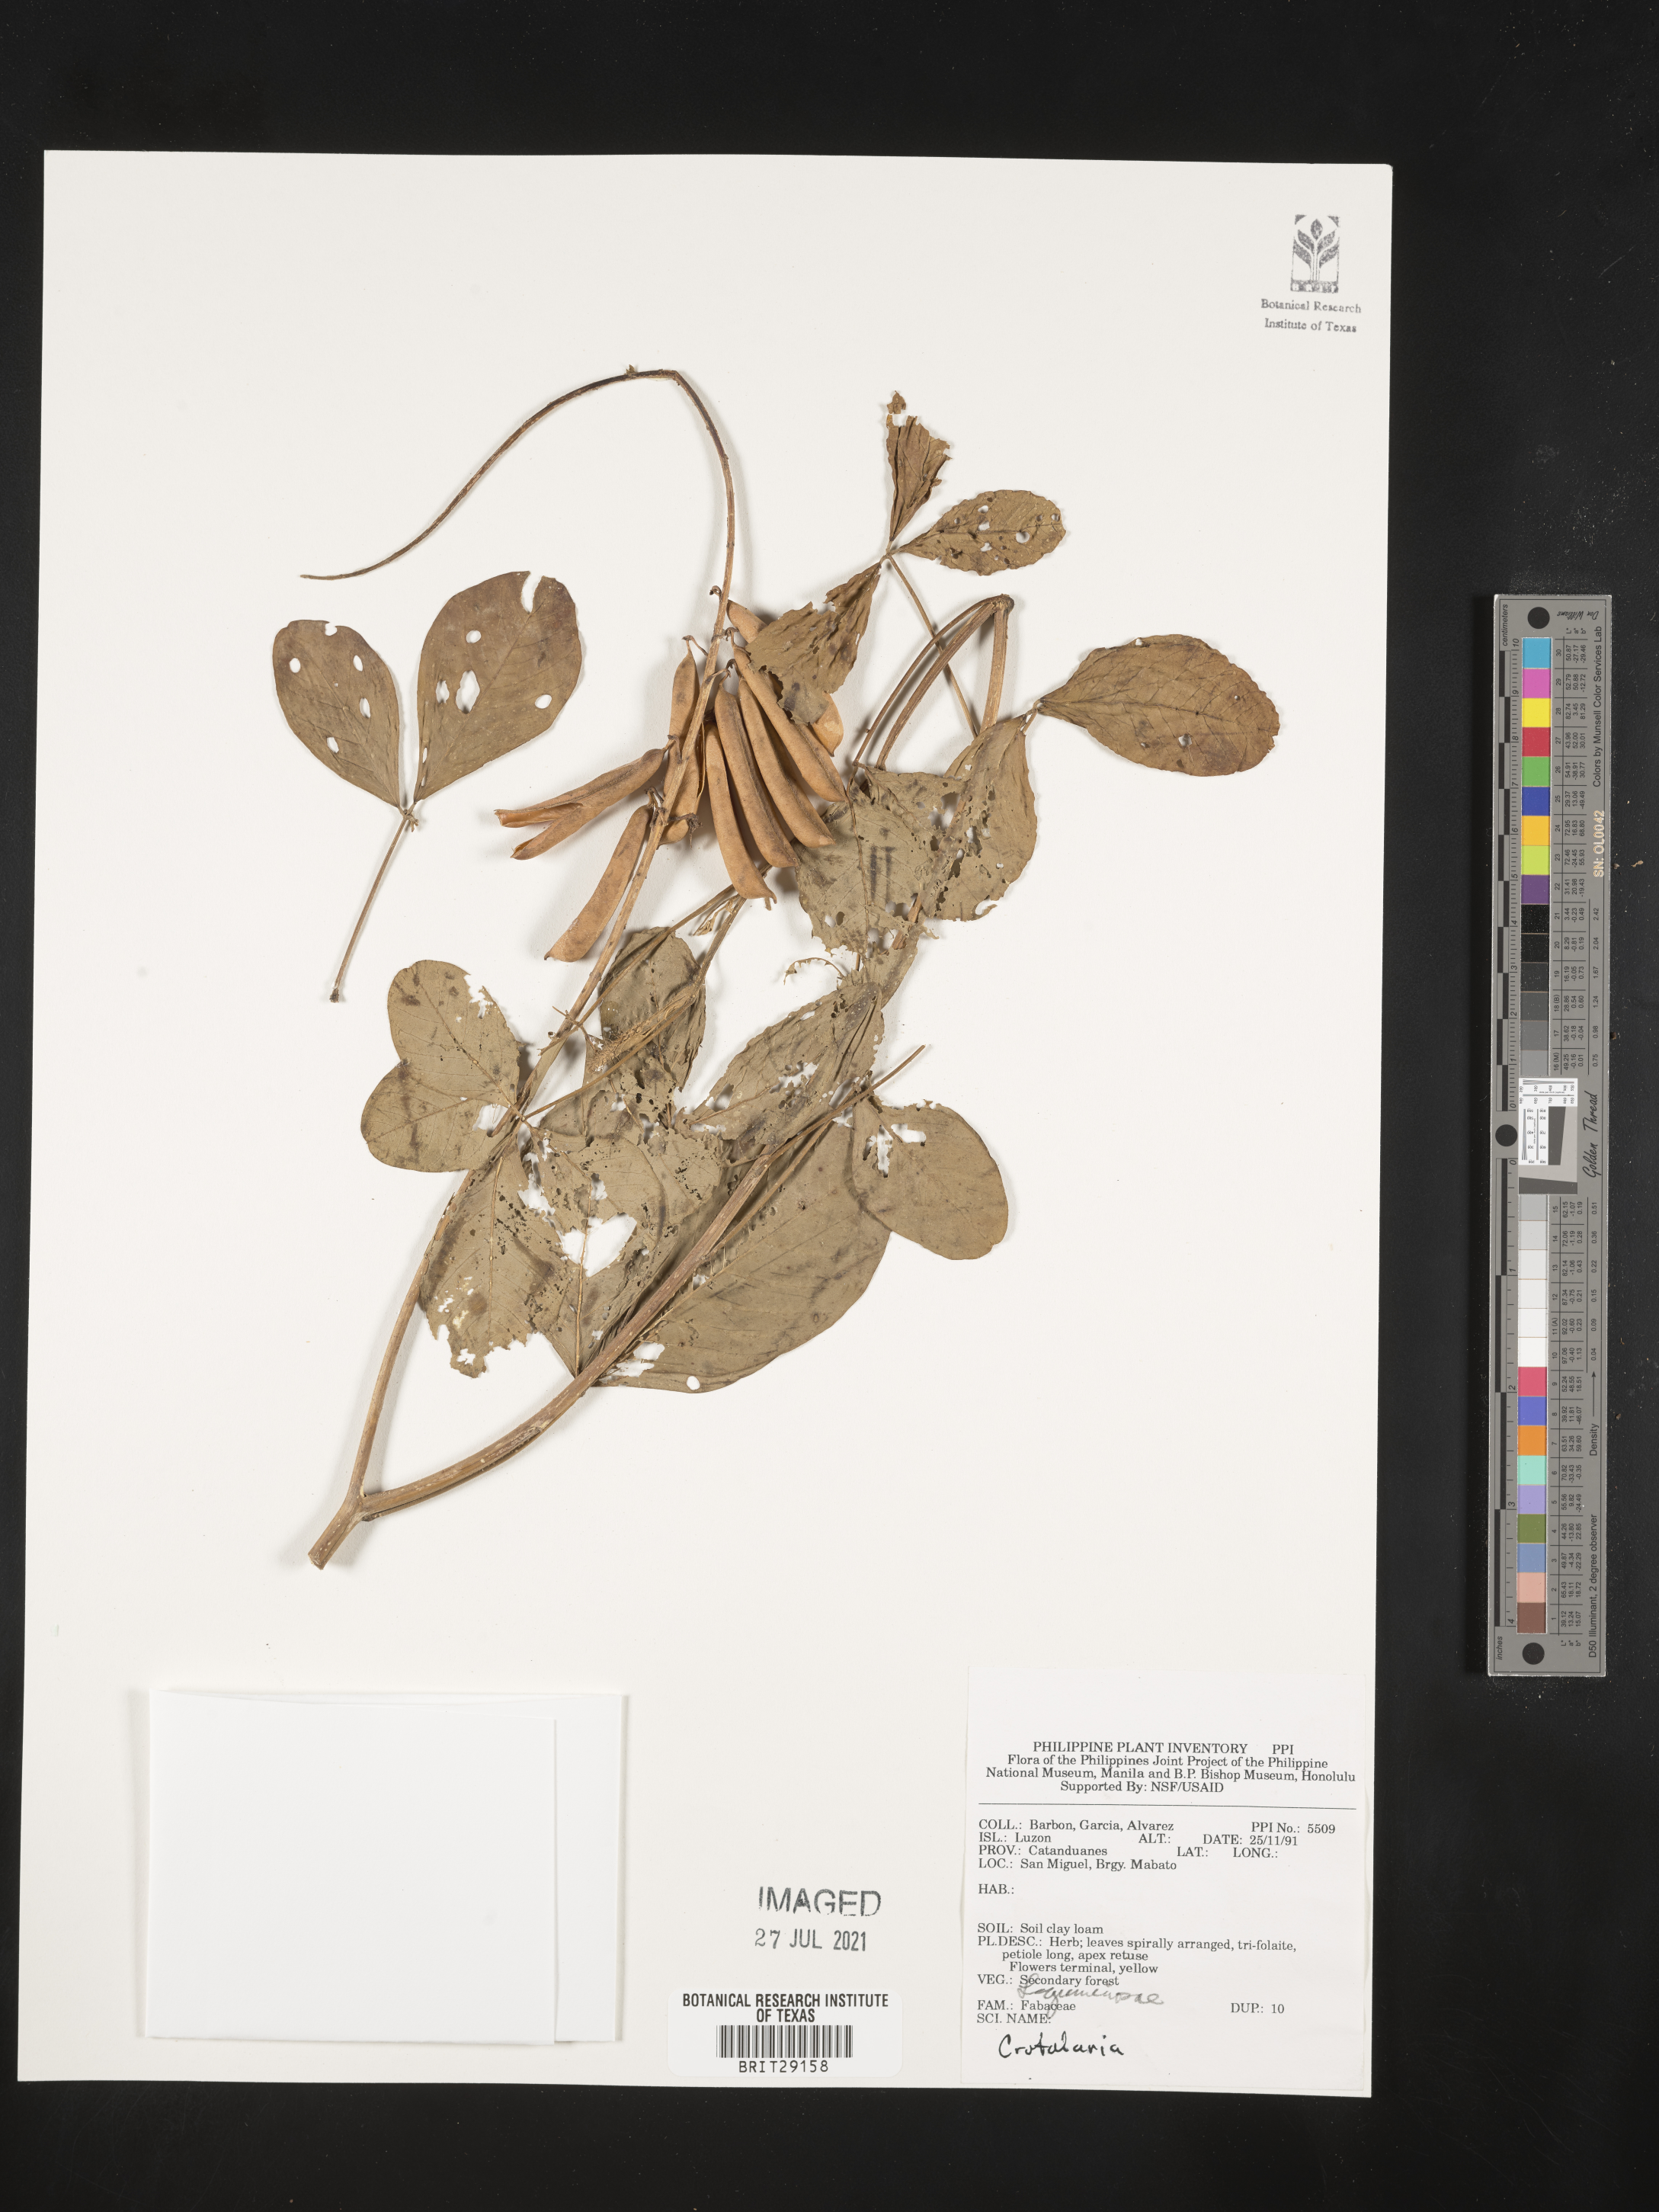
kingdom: Plantae
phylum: Tracheophyta
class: Magnoliopsida
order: Fabales
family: Fabaceae
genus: Crotalaria
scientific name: Crotalaria
